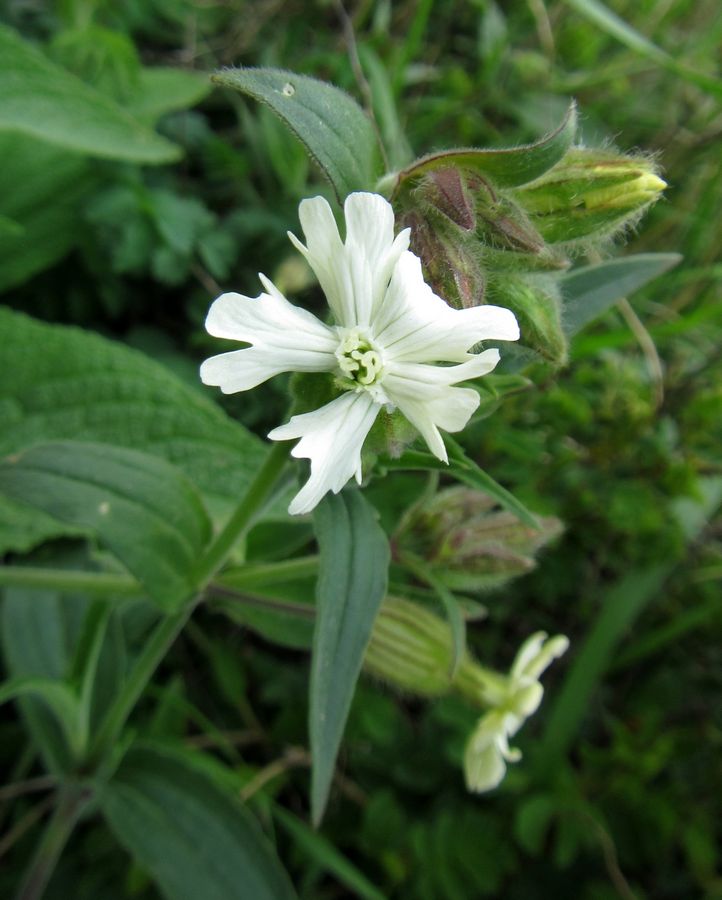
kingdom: Plantae
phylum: Tracheophyta
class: Magnoliopsida
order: Caryophyllales
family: Caryophyllaceae
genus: Silene
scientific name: Silene latifolia
